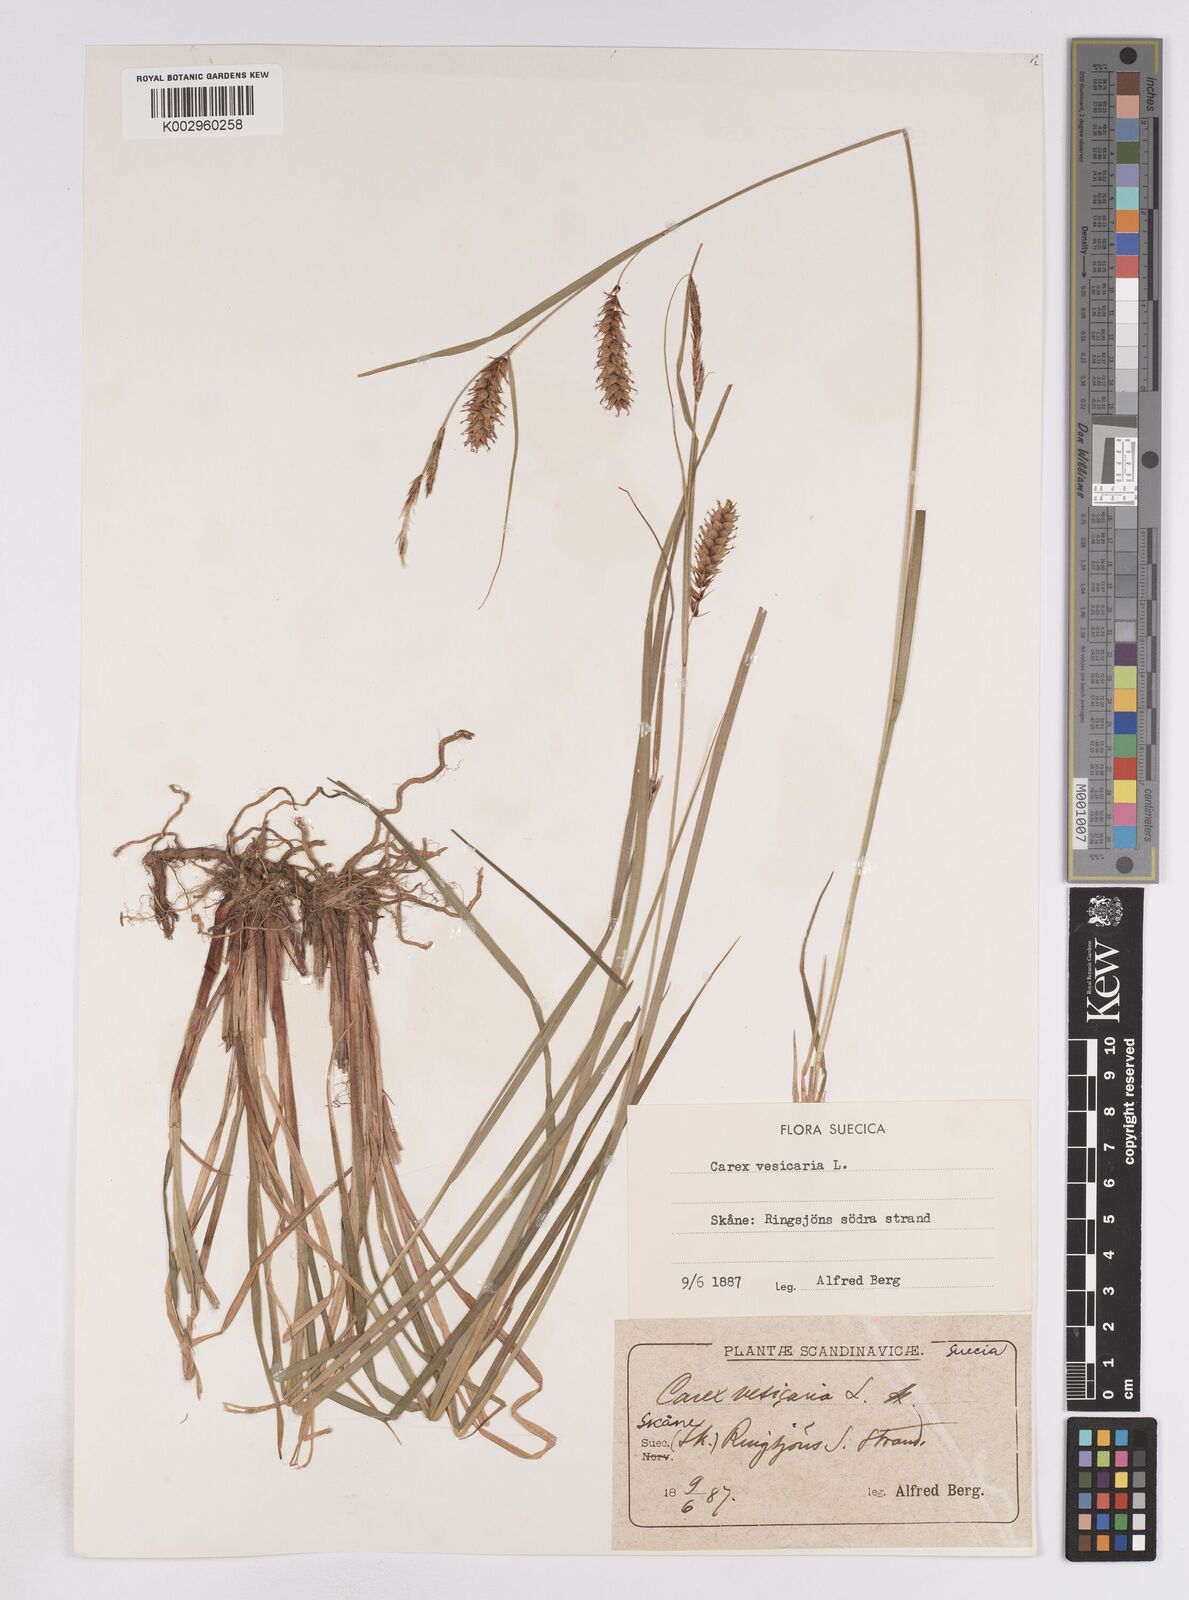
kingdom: Plantae
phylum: Tracheophyta
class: Liliopsida
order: Poales
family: Cyperaceae
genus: Carex
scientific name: Carex vesicaria
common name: Bladder-sedge
